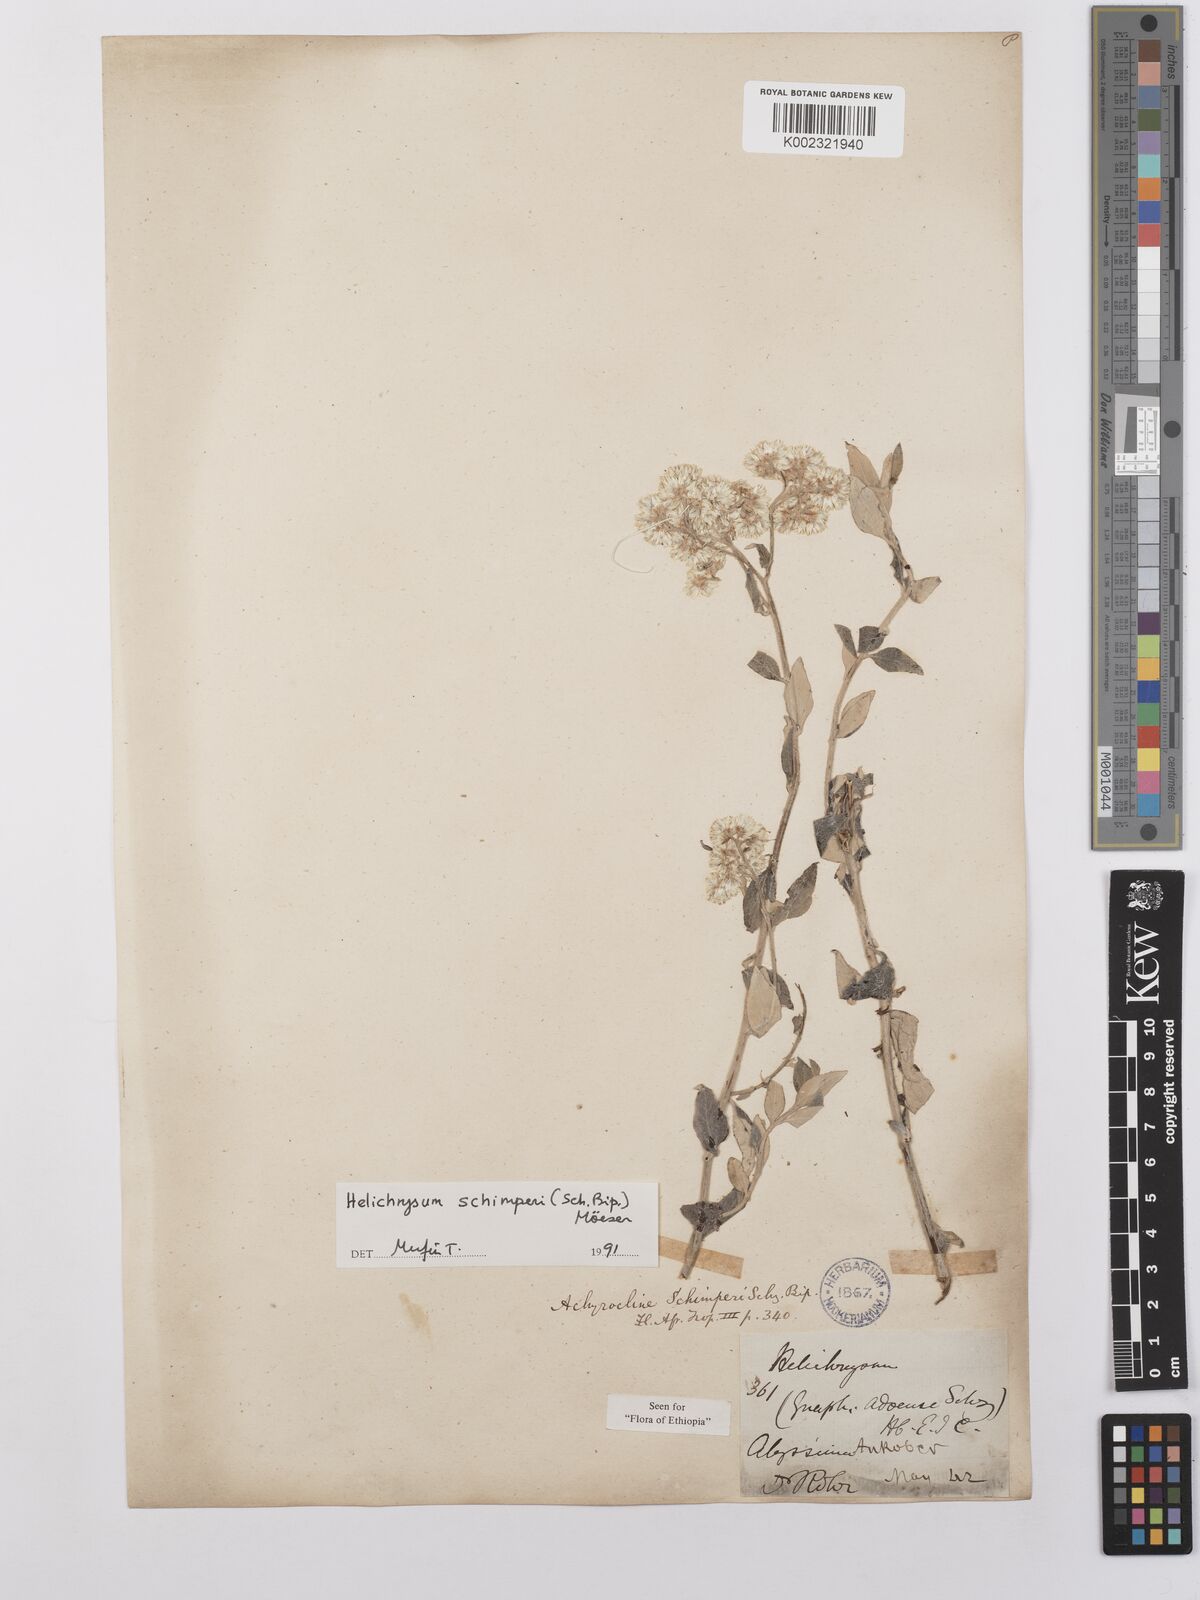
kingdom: Plantae
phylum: Tracheophyta
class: Magnoliopsida
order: Asterales
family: Asteraceae
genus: Helichrysum
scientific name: Helichrysum schimperi
